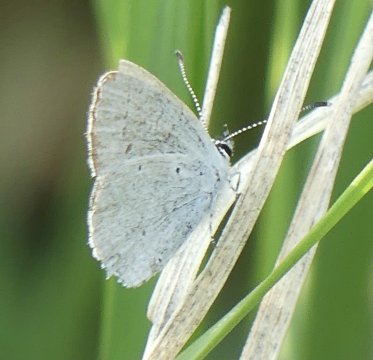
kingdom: Animalia
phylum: Arthropoda
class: Insecta
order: Lepidoptera
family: Lycaenidae
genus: Elkalyce
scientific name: Elkalyce amyntula
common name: Western Tailed-Blue
